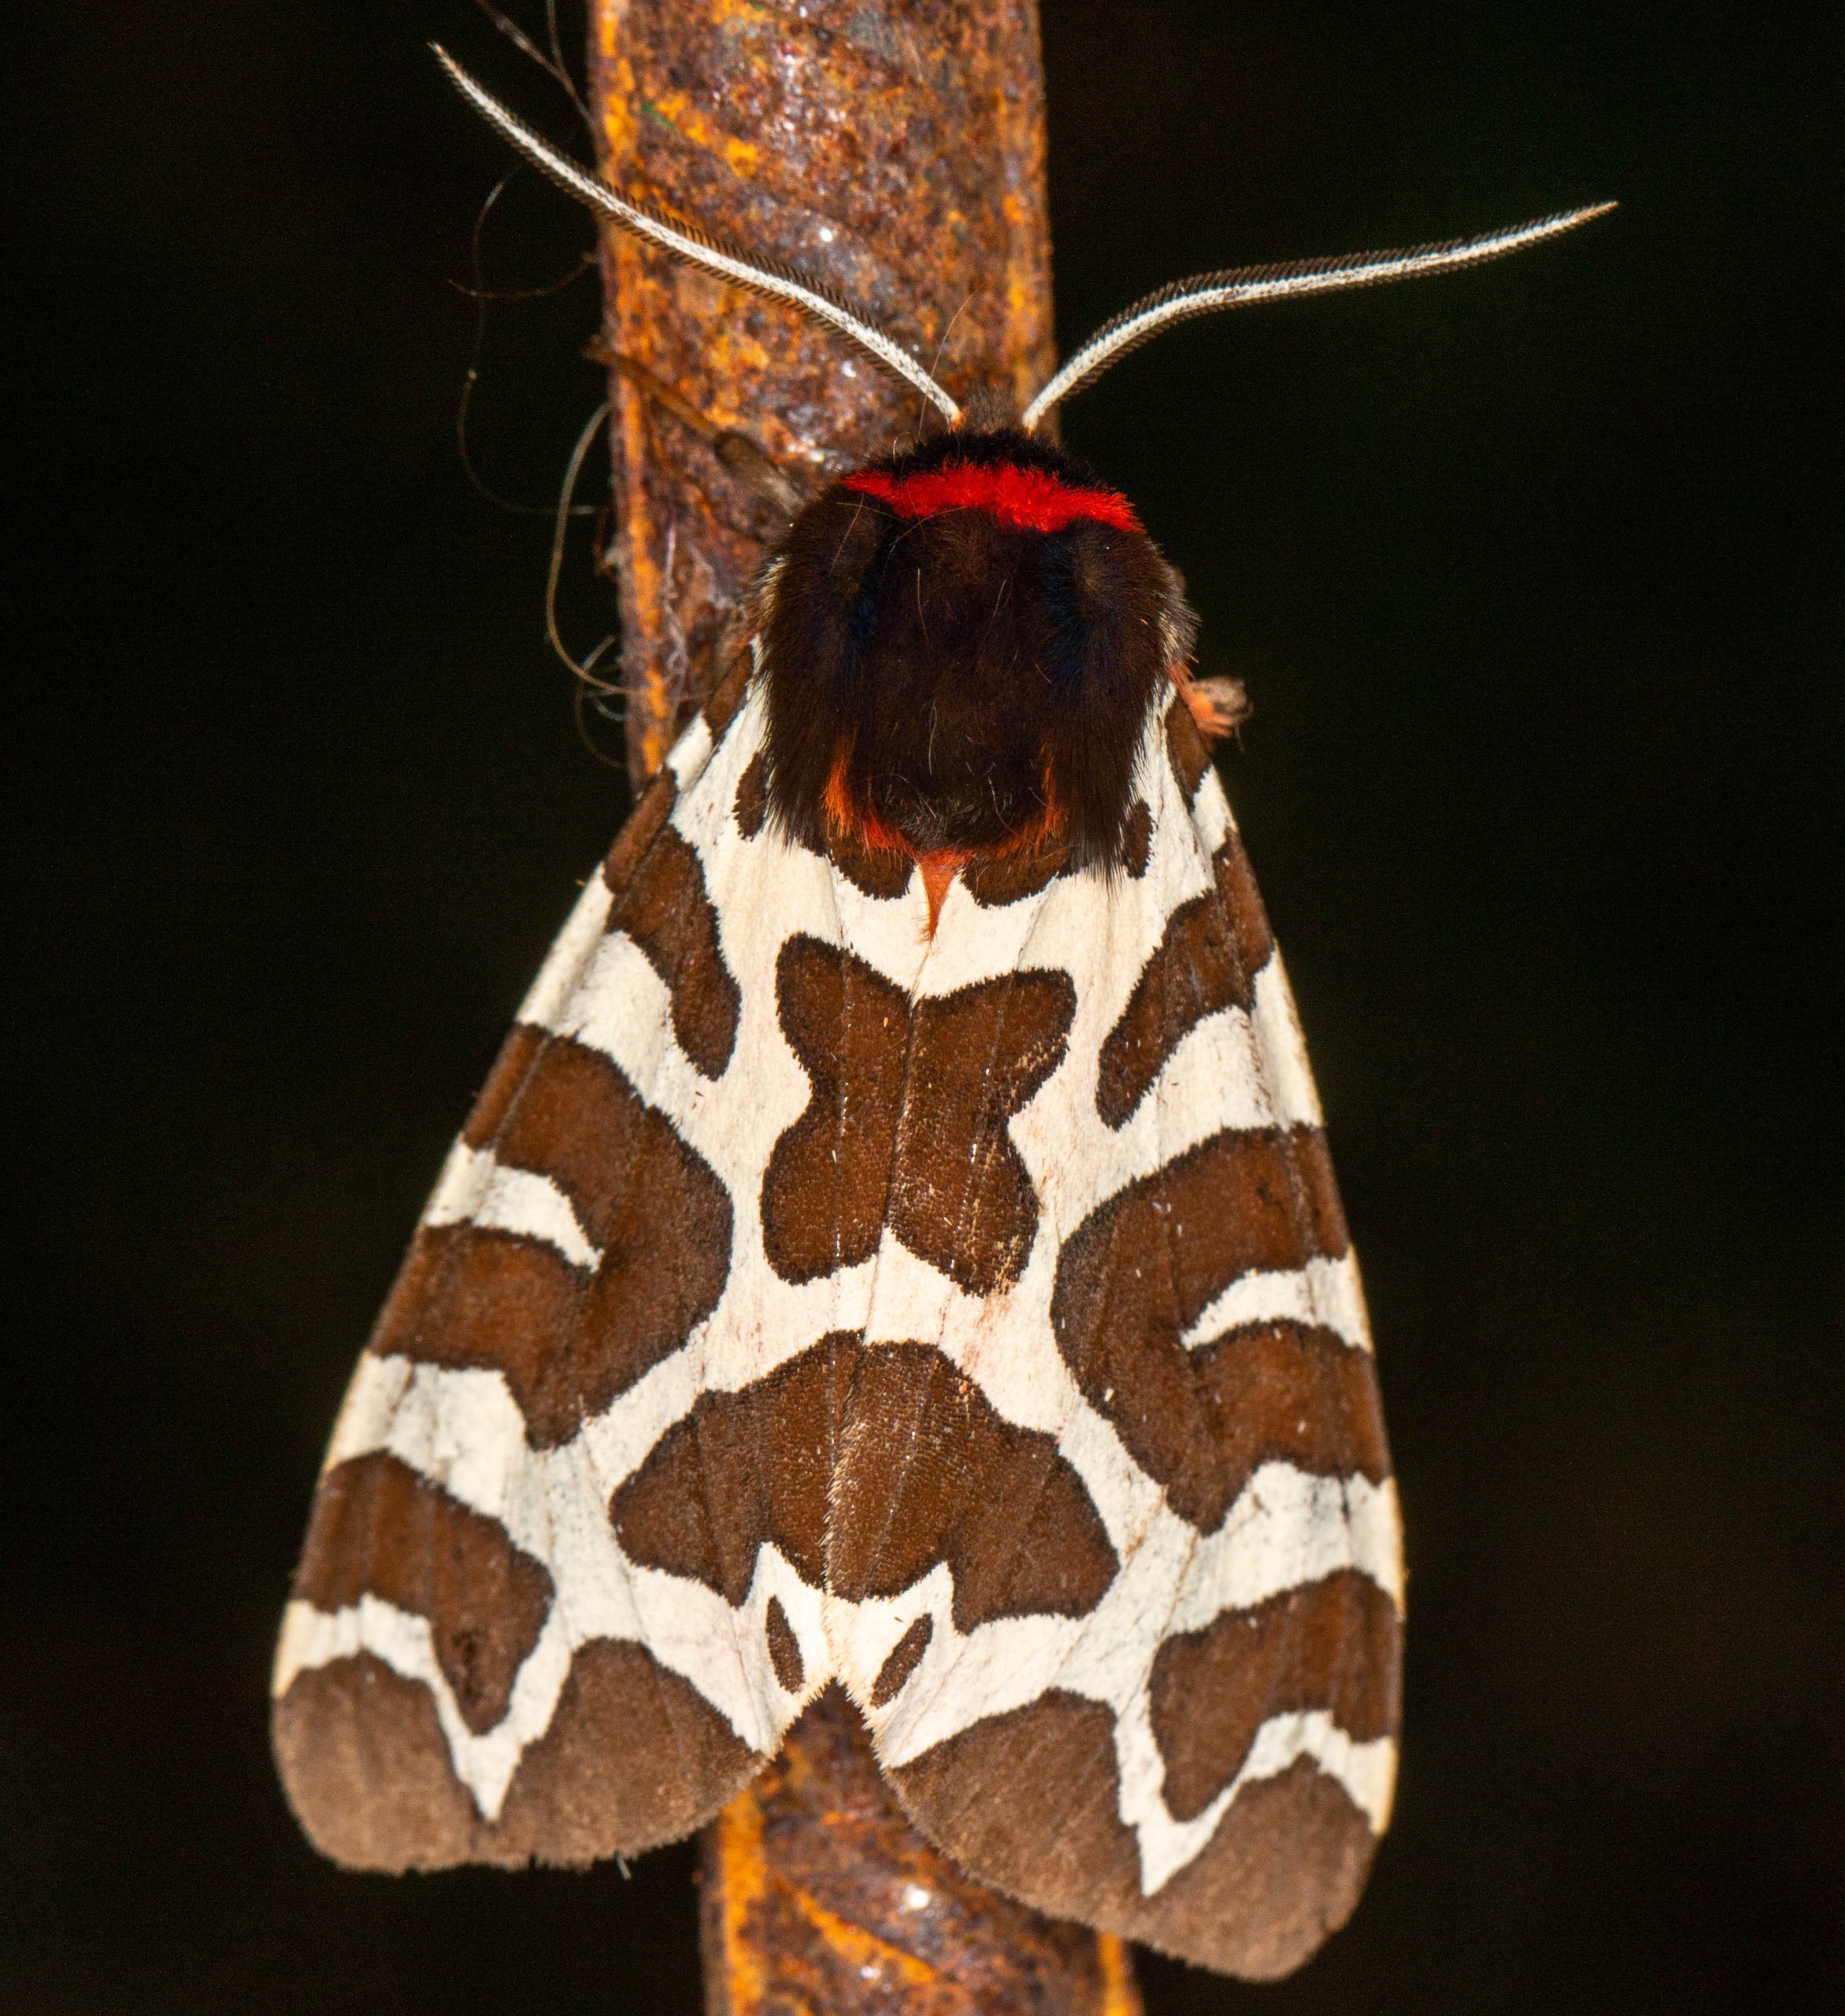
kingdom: Animalia
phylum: Arthropoda
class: Insecta
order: Lepidoptera
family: Erebidae
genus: Arctia
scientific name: Arctia caja
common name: Brun bjørn
